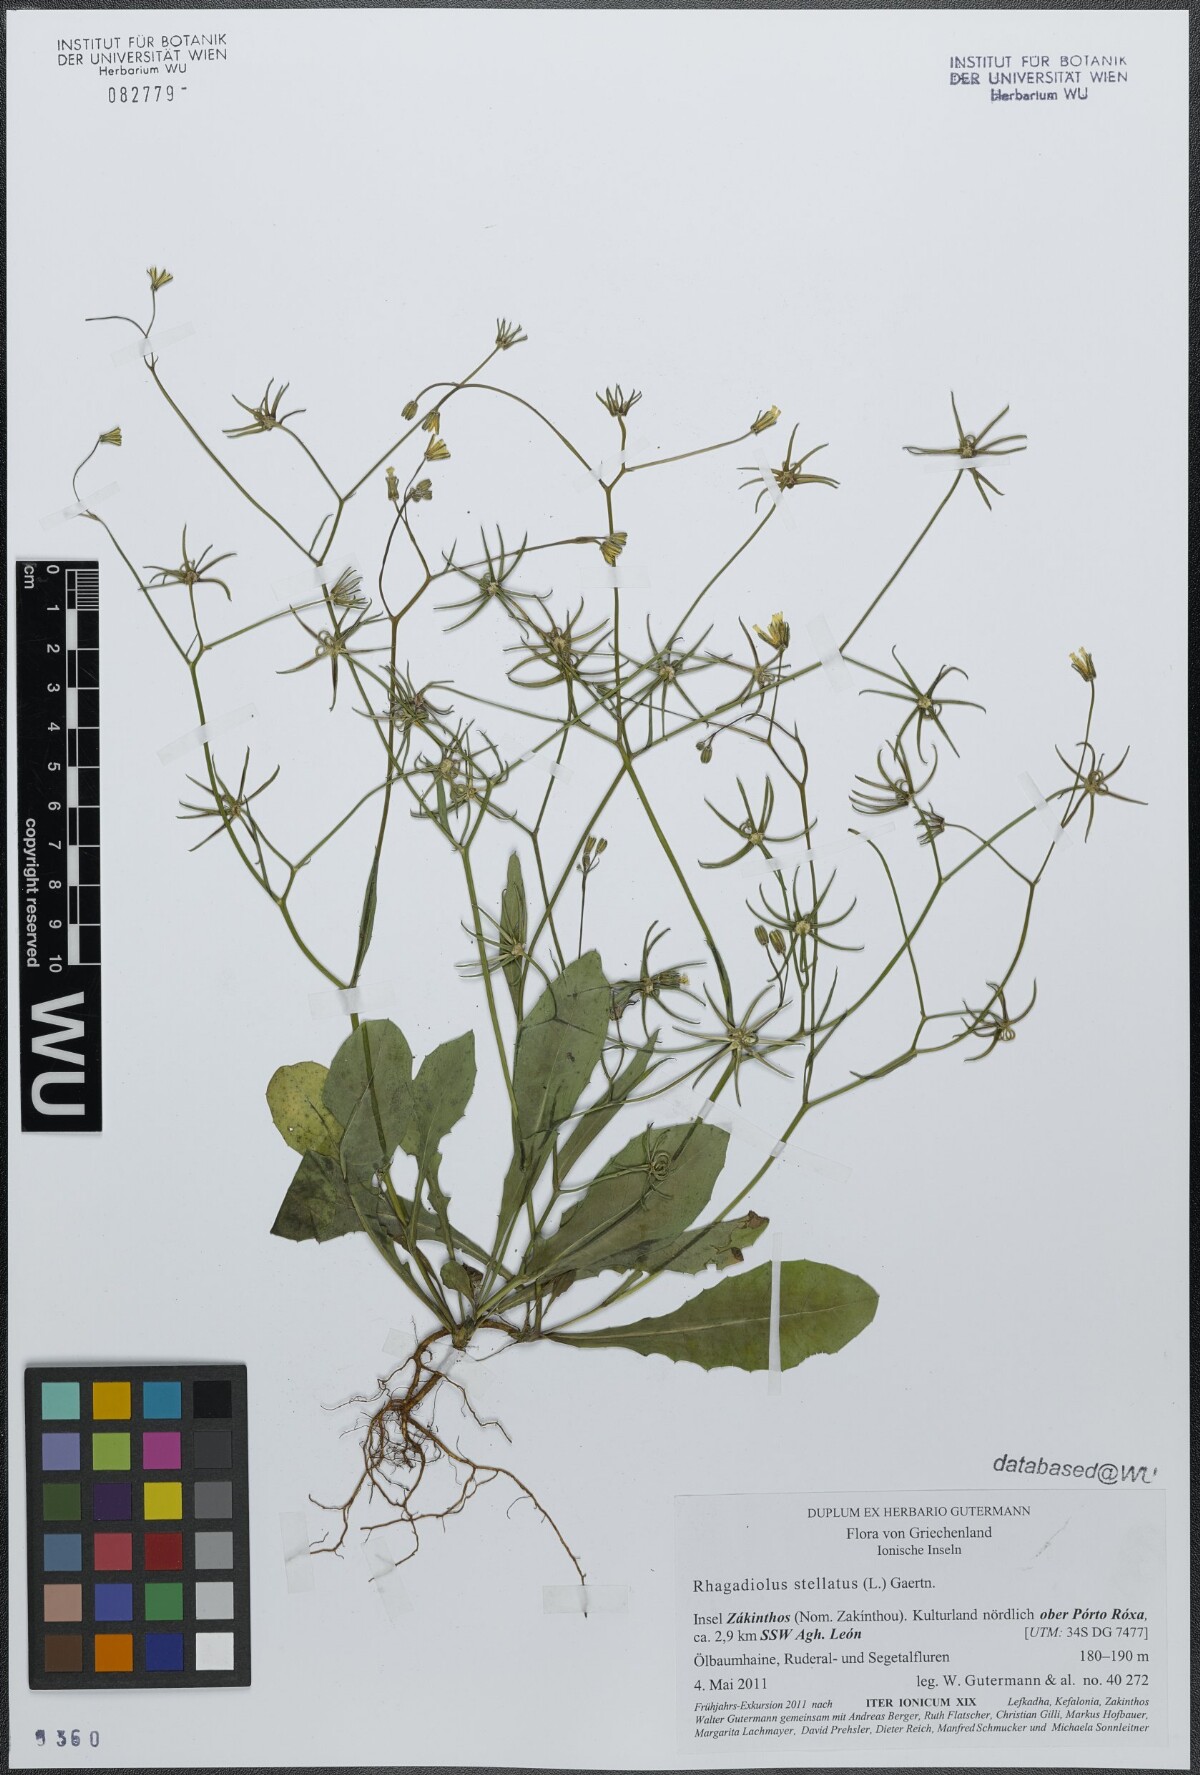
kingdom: Plantae
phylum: Tracheophyta
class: Magnoliopsida
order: Asterales
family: Asteraceae
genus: Rhagadiolus
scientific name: Rhagadiolus stellatus
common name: Star hawkbit
